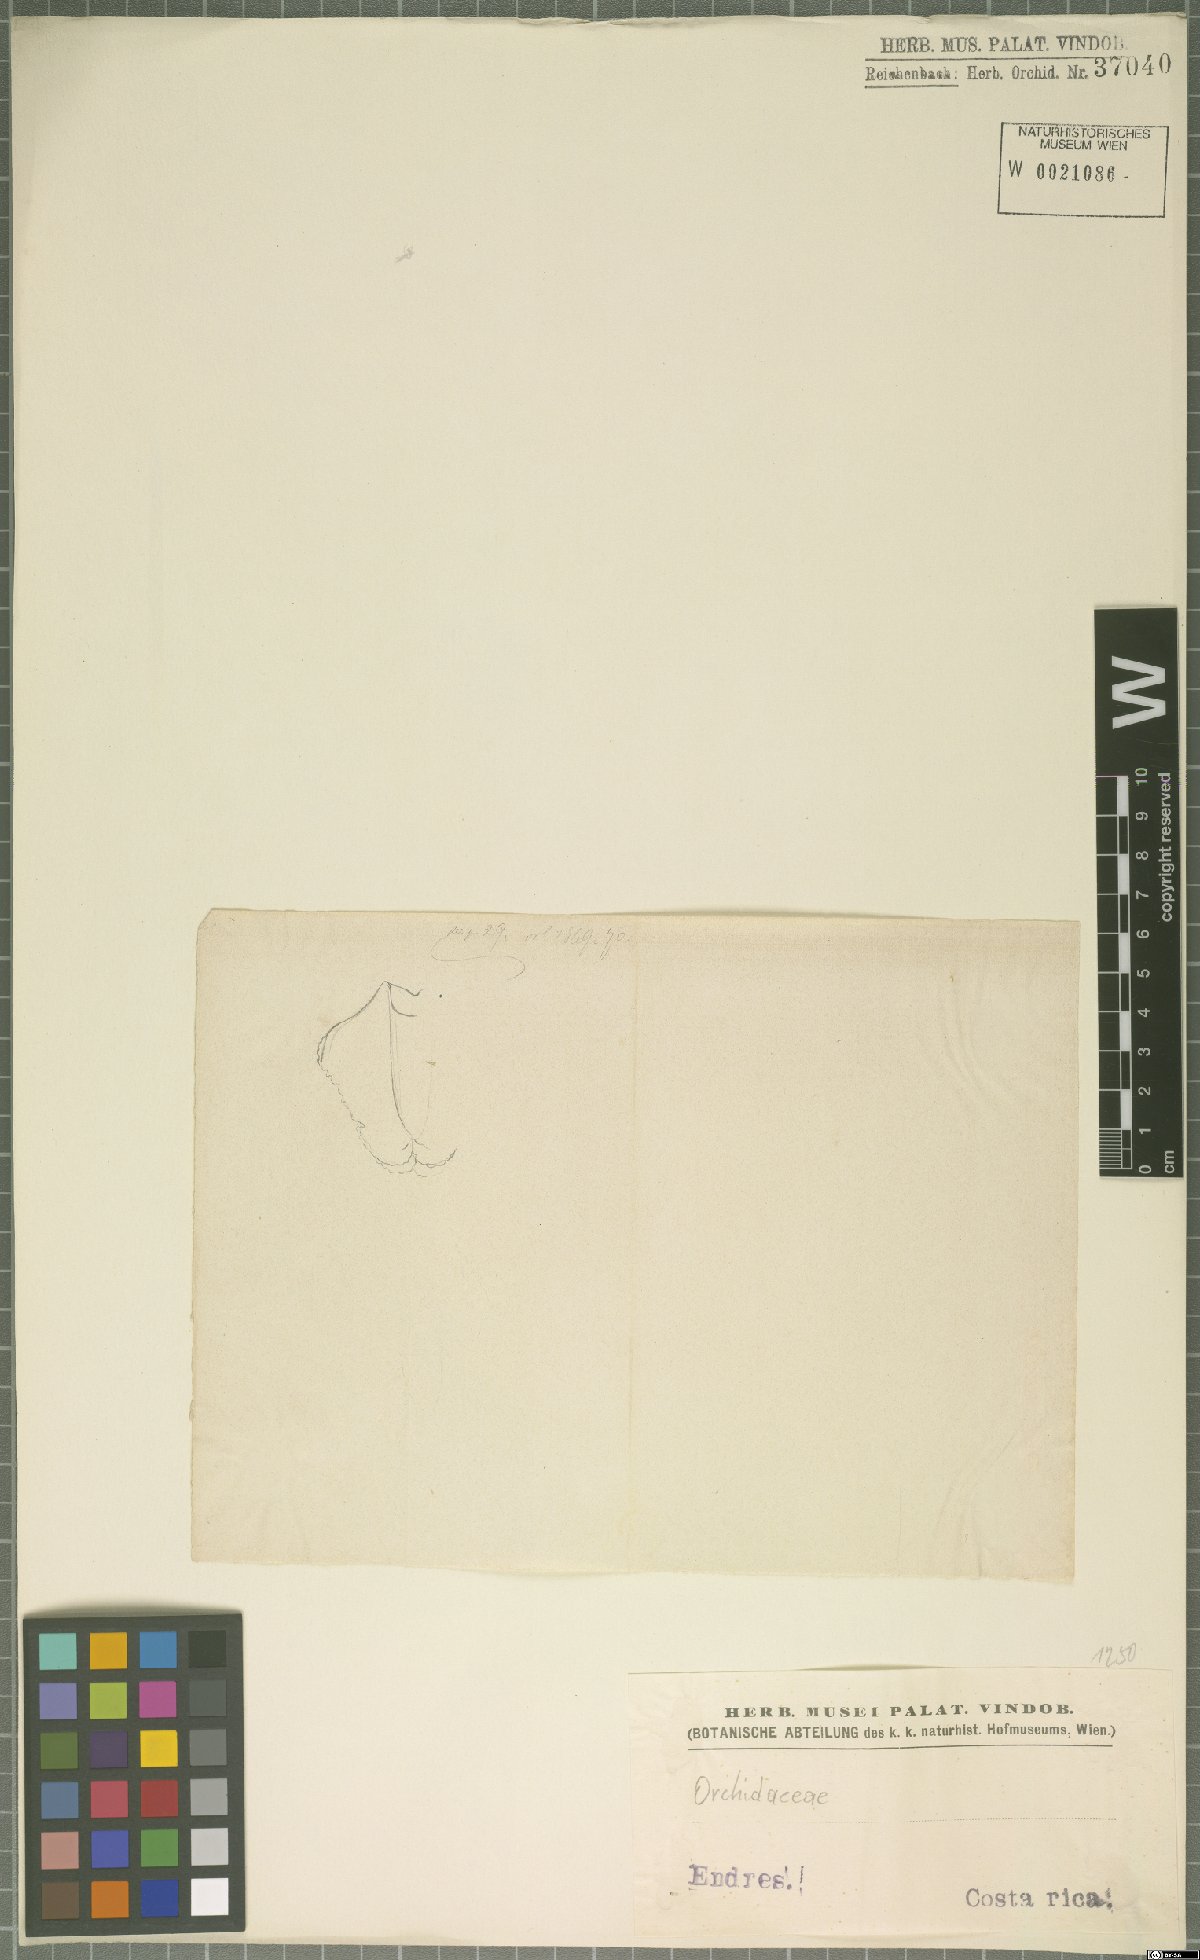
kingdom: Plantae
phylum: Tracheophyta
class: Liliopsida
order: Asparagales
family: Orchidaceae
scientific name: Orchidaceae
